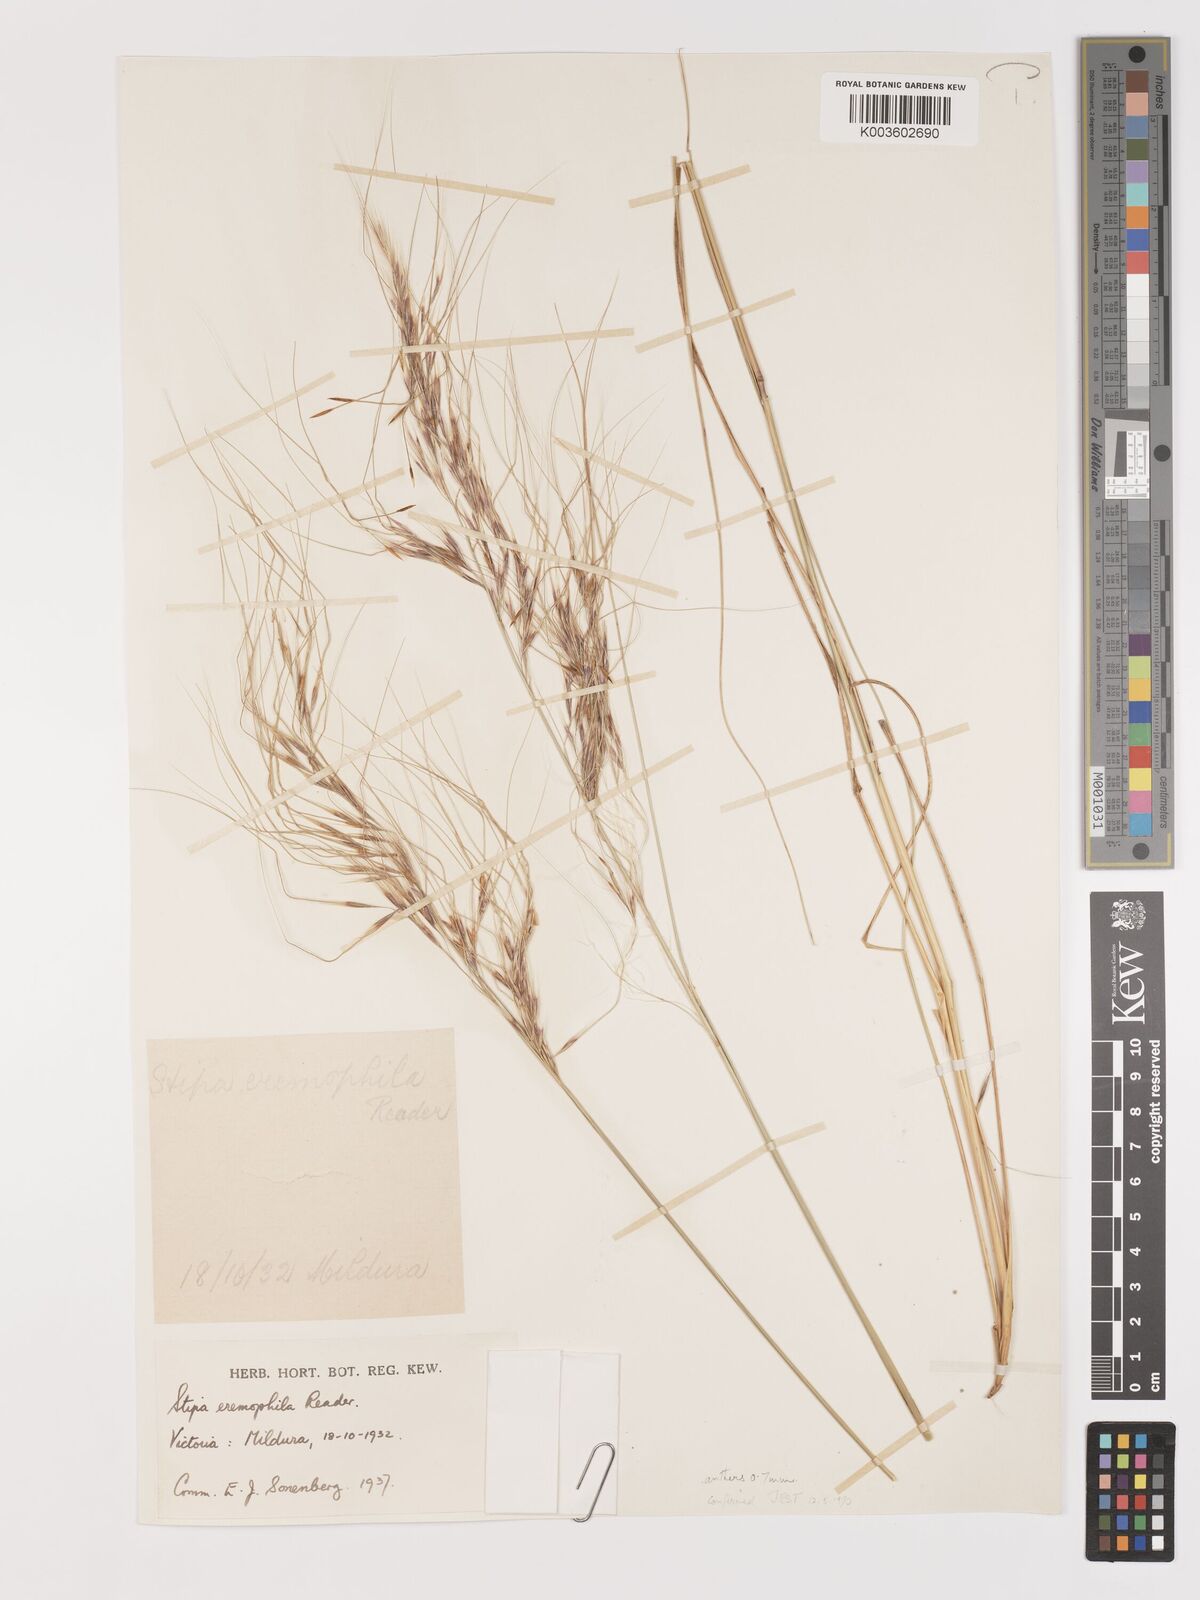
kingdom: Plantae
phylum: Tracheophyta
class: Liliopsida
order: Poales
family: Poaceae
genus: Austrostipa
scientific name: Austrostipa eremophila
